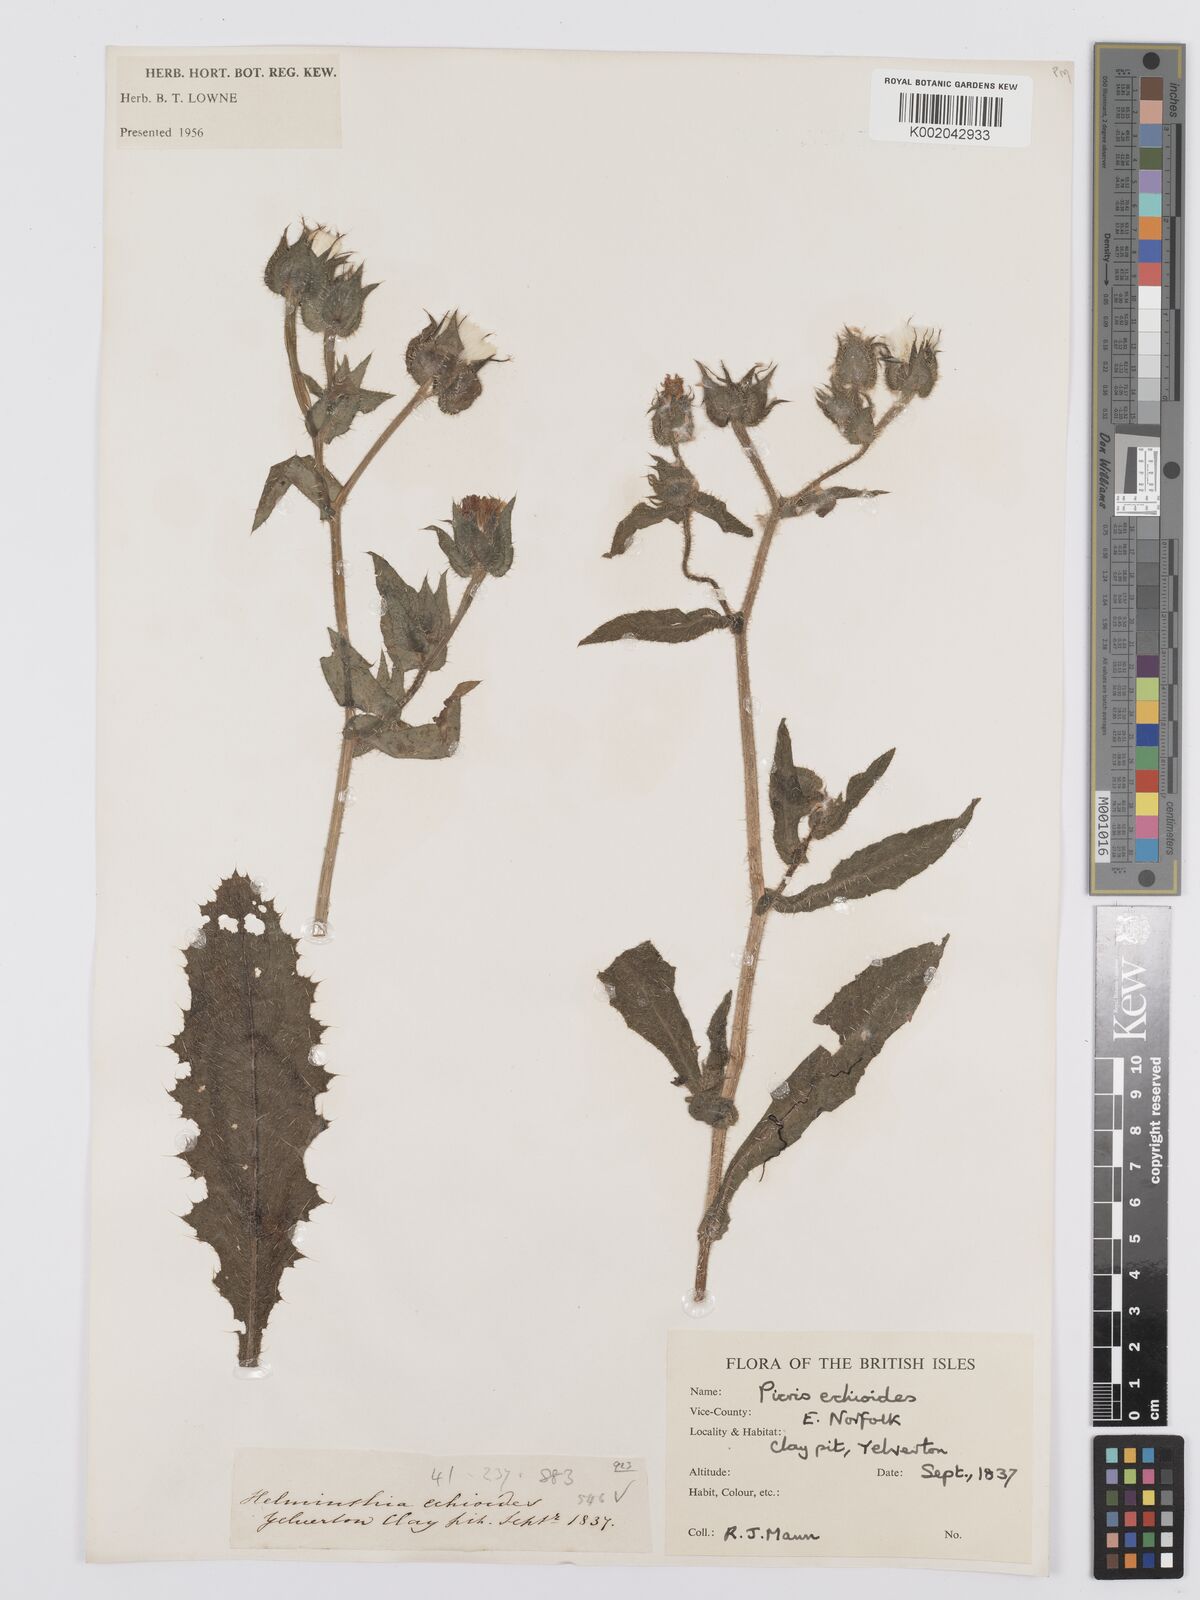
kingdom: Plantae
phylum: Tracheophyta
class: Magnoliopsida
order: Asterales
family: Asteraceae
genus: Helminthotheca
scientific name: Helminthotheca echioides
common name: Ox-tongue
